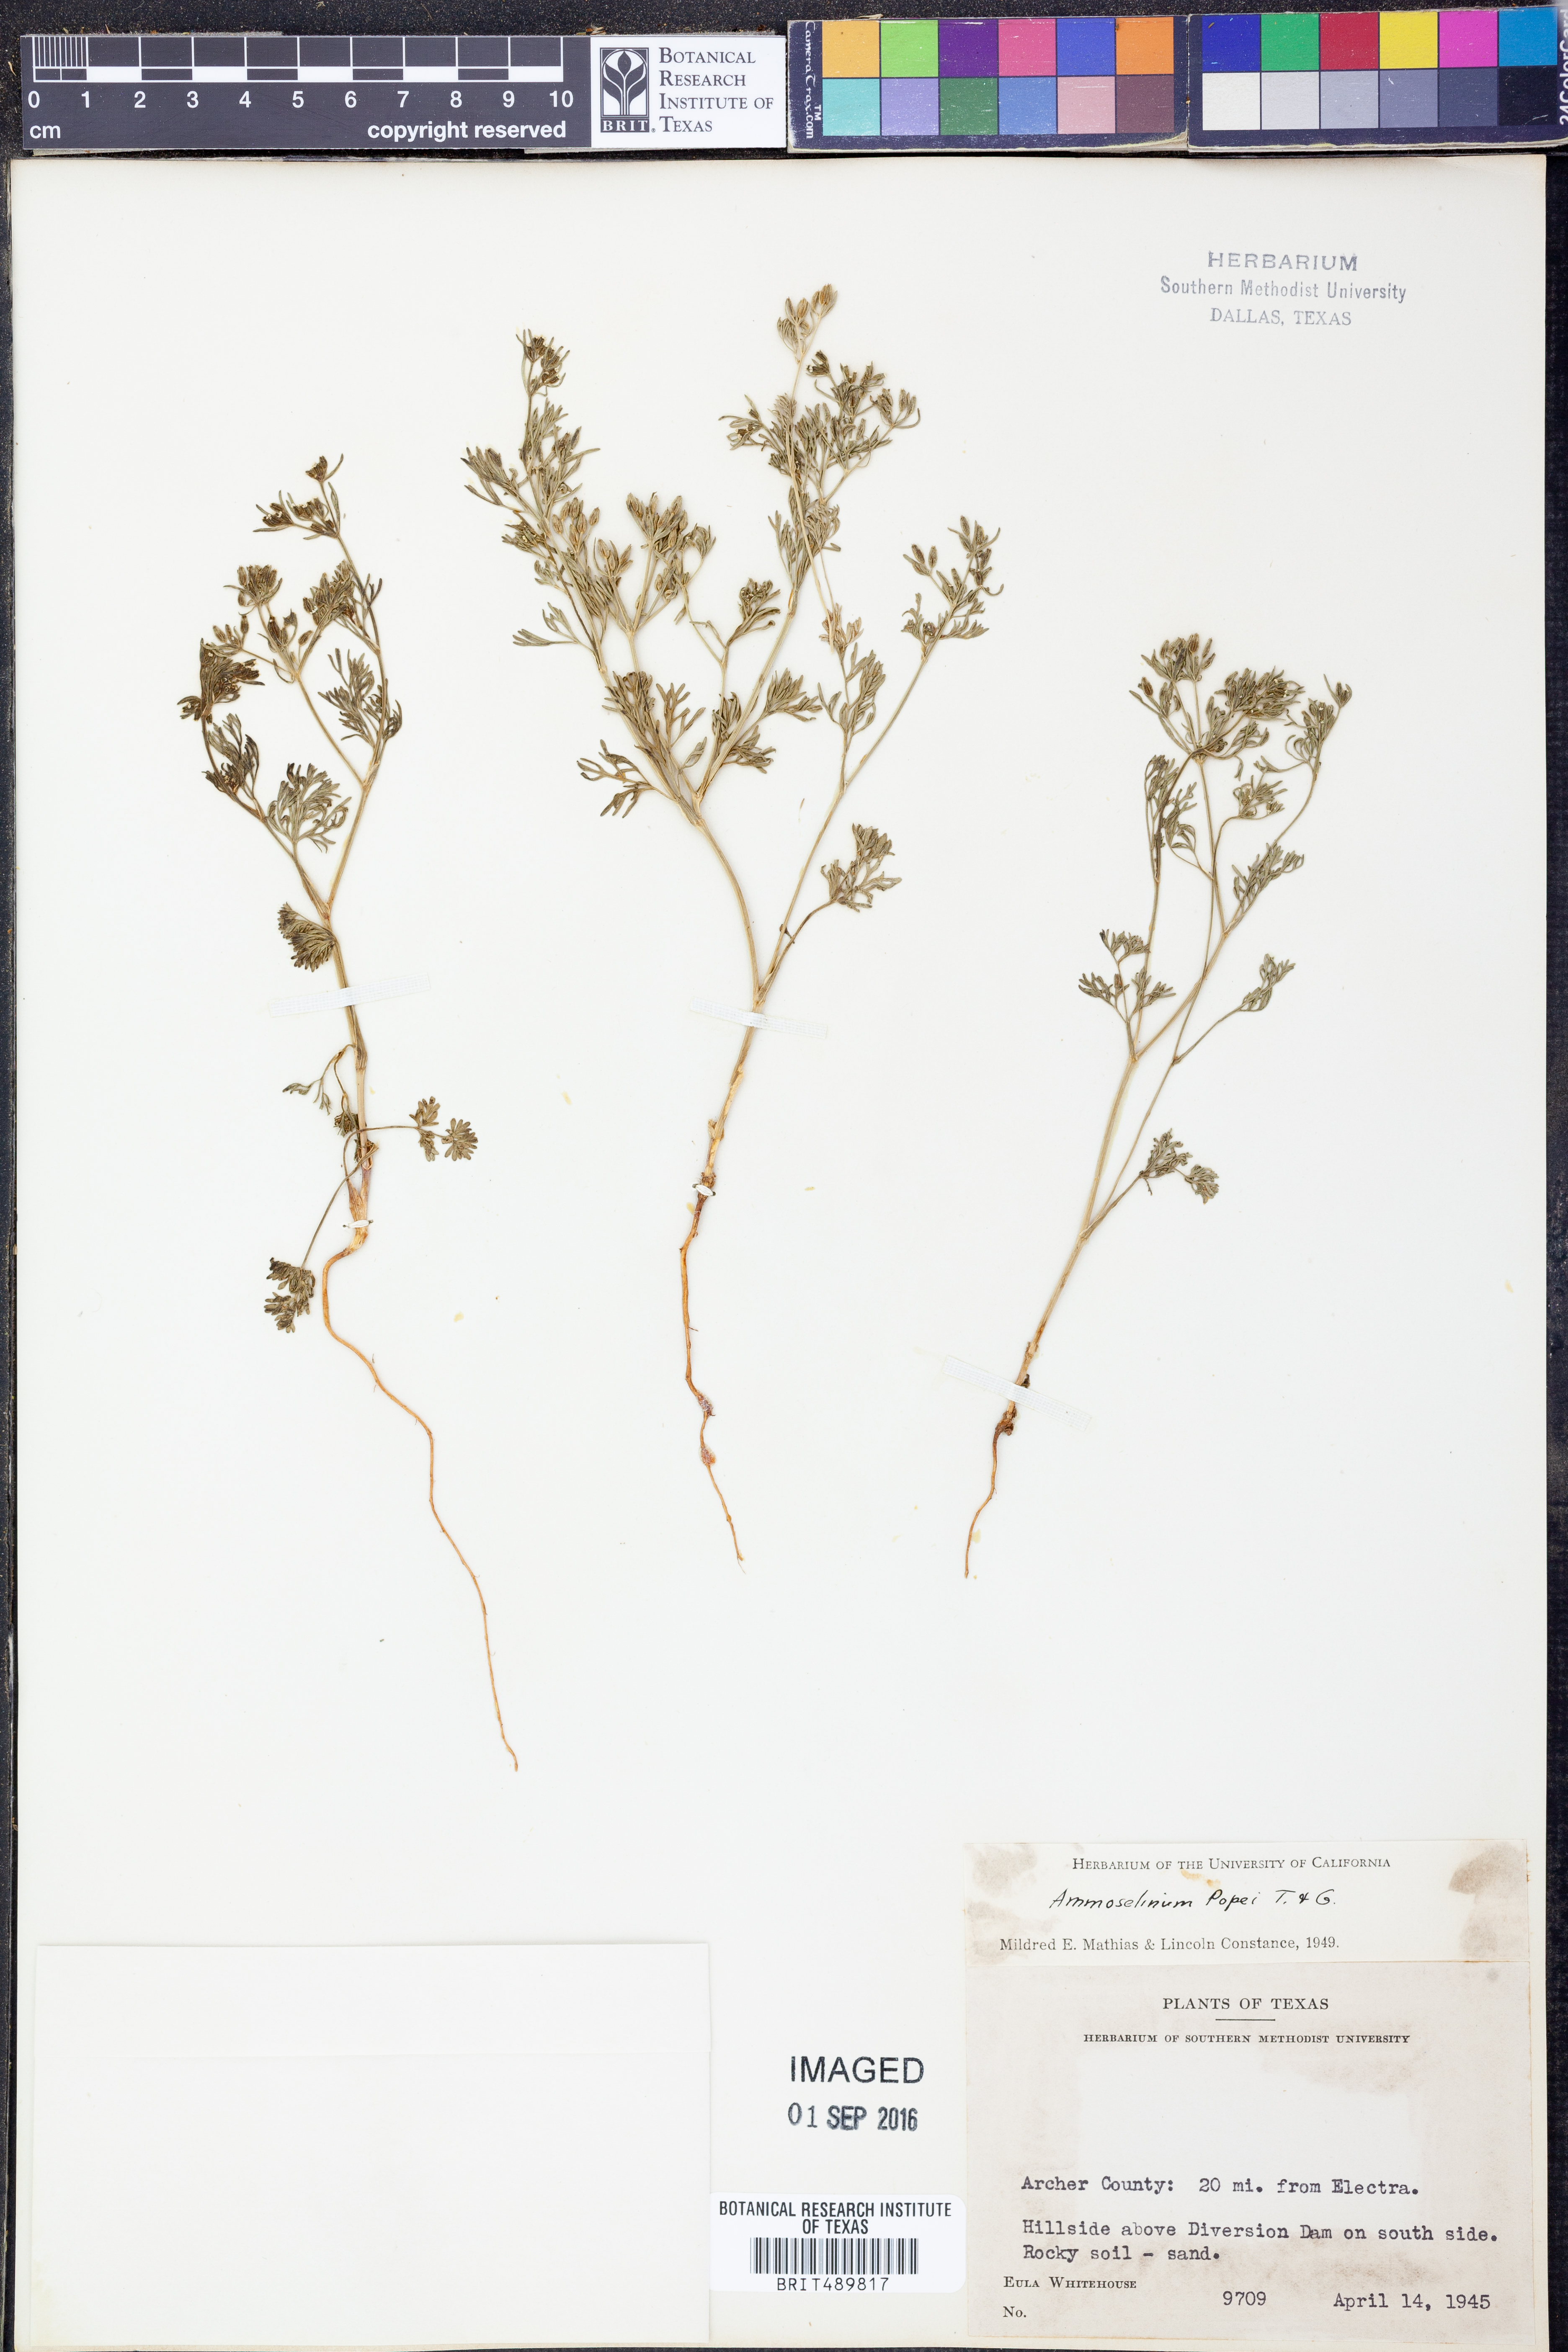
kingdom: Plantae
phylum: Tracheophyta
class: Magnoliopsida
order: Apiales
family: Apiaceae
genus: Ammoselinum
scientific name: Ammoselinum popei
